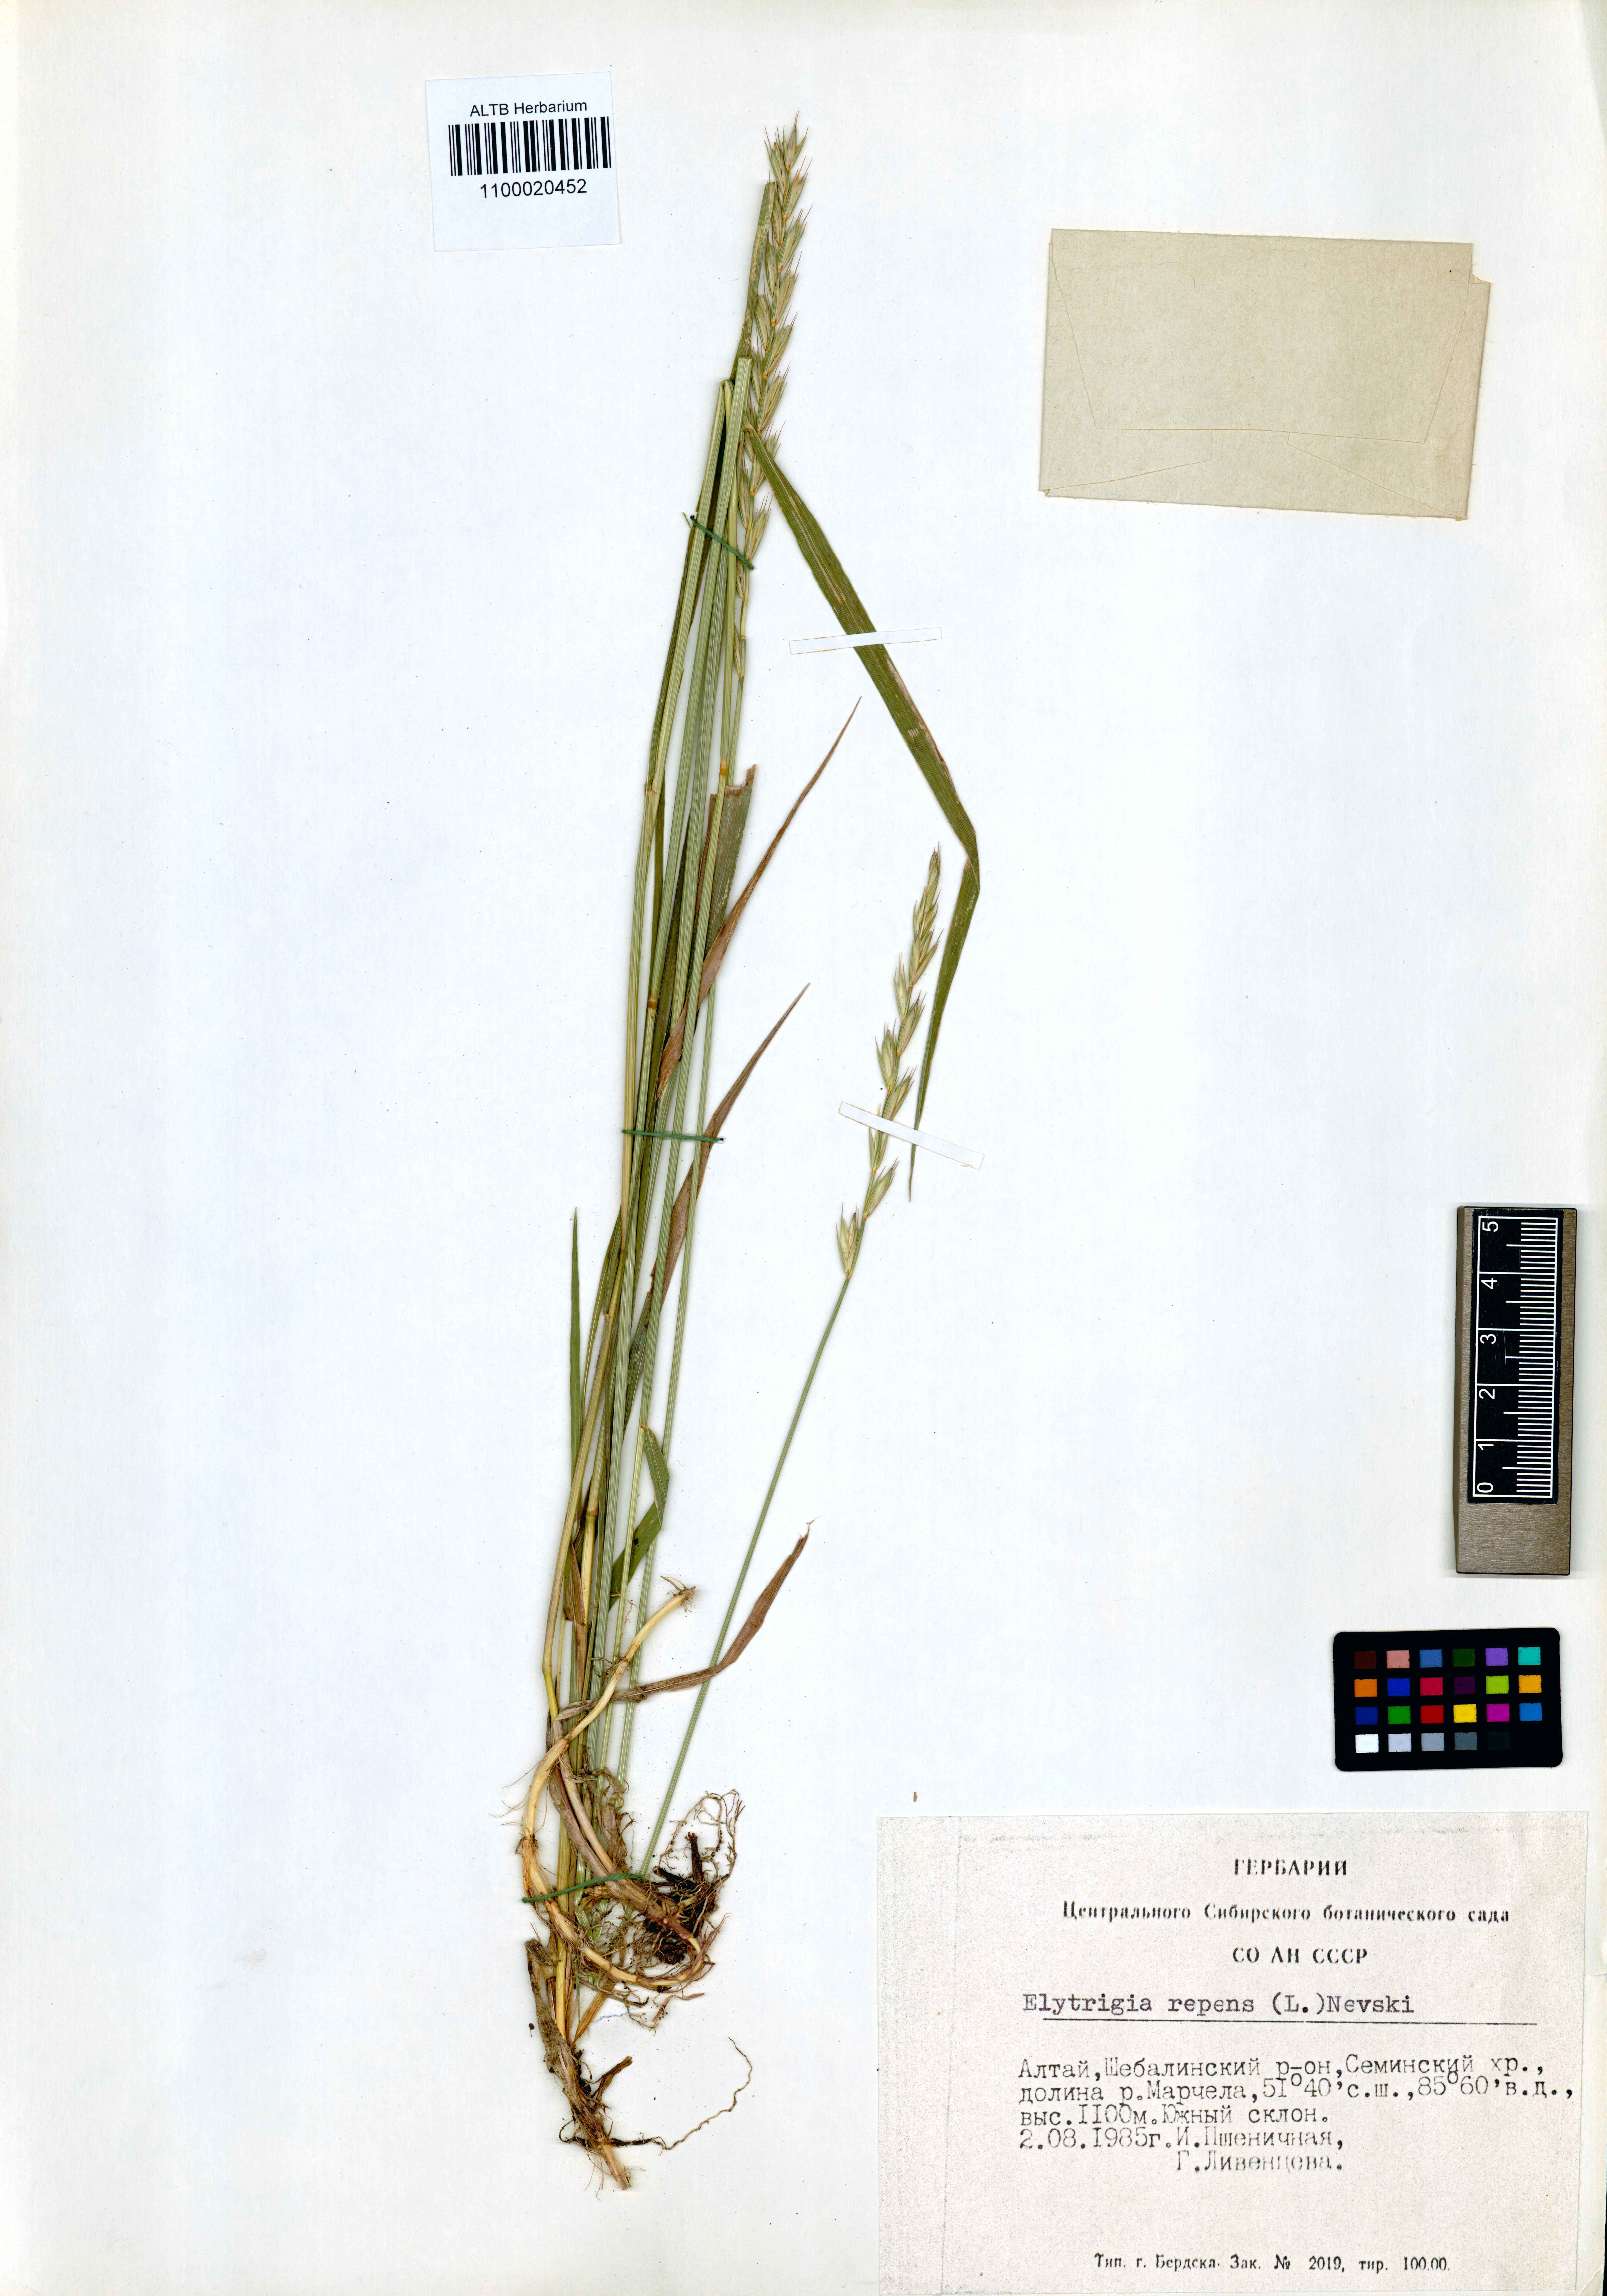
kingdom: Plantae
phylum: Tracheophyta
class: Liliopsida
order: Poales
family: Poaceae
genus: Elymus
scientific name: Elymus repens
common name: Quackgrass
